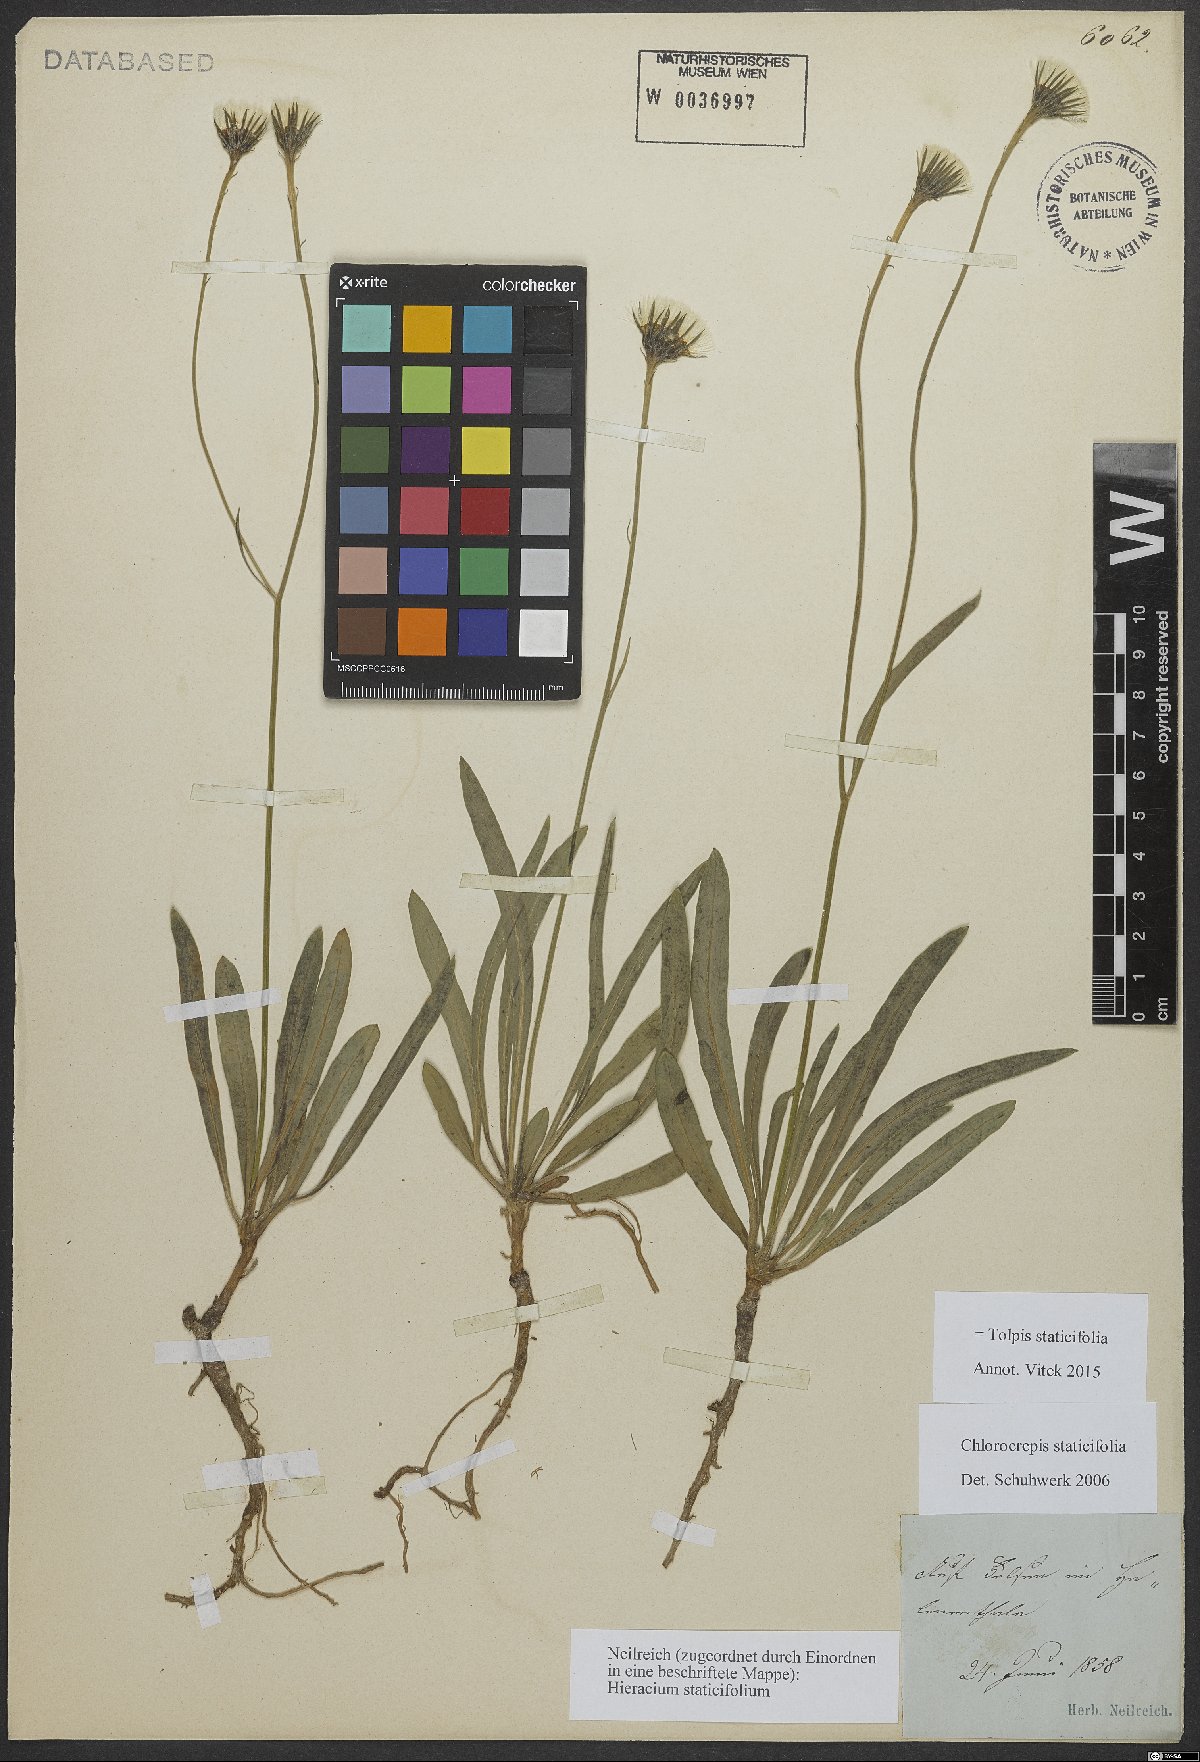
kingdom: Plantae
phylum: Tracheophyta
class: Magnoliopsida
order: Asterales
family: Asteraceae
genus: Tolpis
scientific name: Tolpis staticifolia
